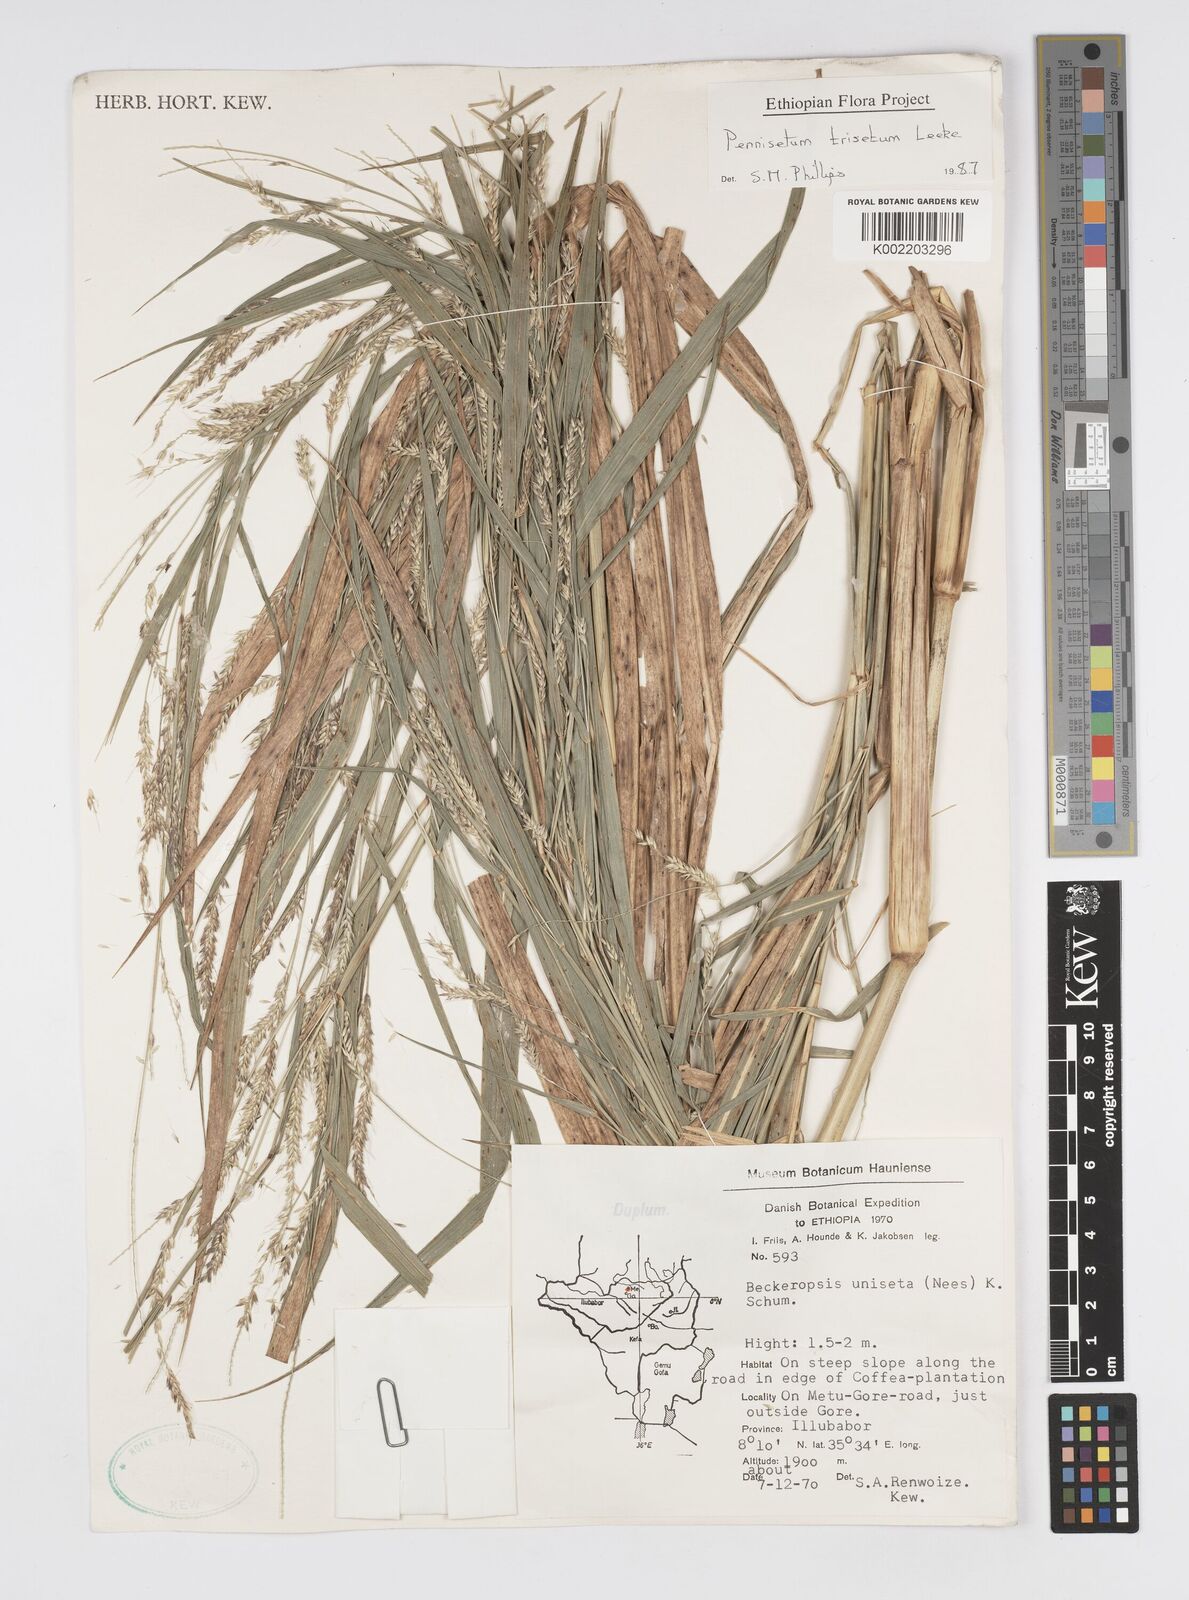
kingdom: Plantae
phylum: Tracheophyta
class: Liliopsida
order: Poales
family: Poaceae
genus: Cenchrus
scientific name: Cenchrus trisetus
